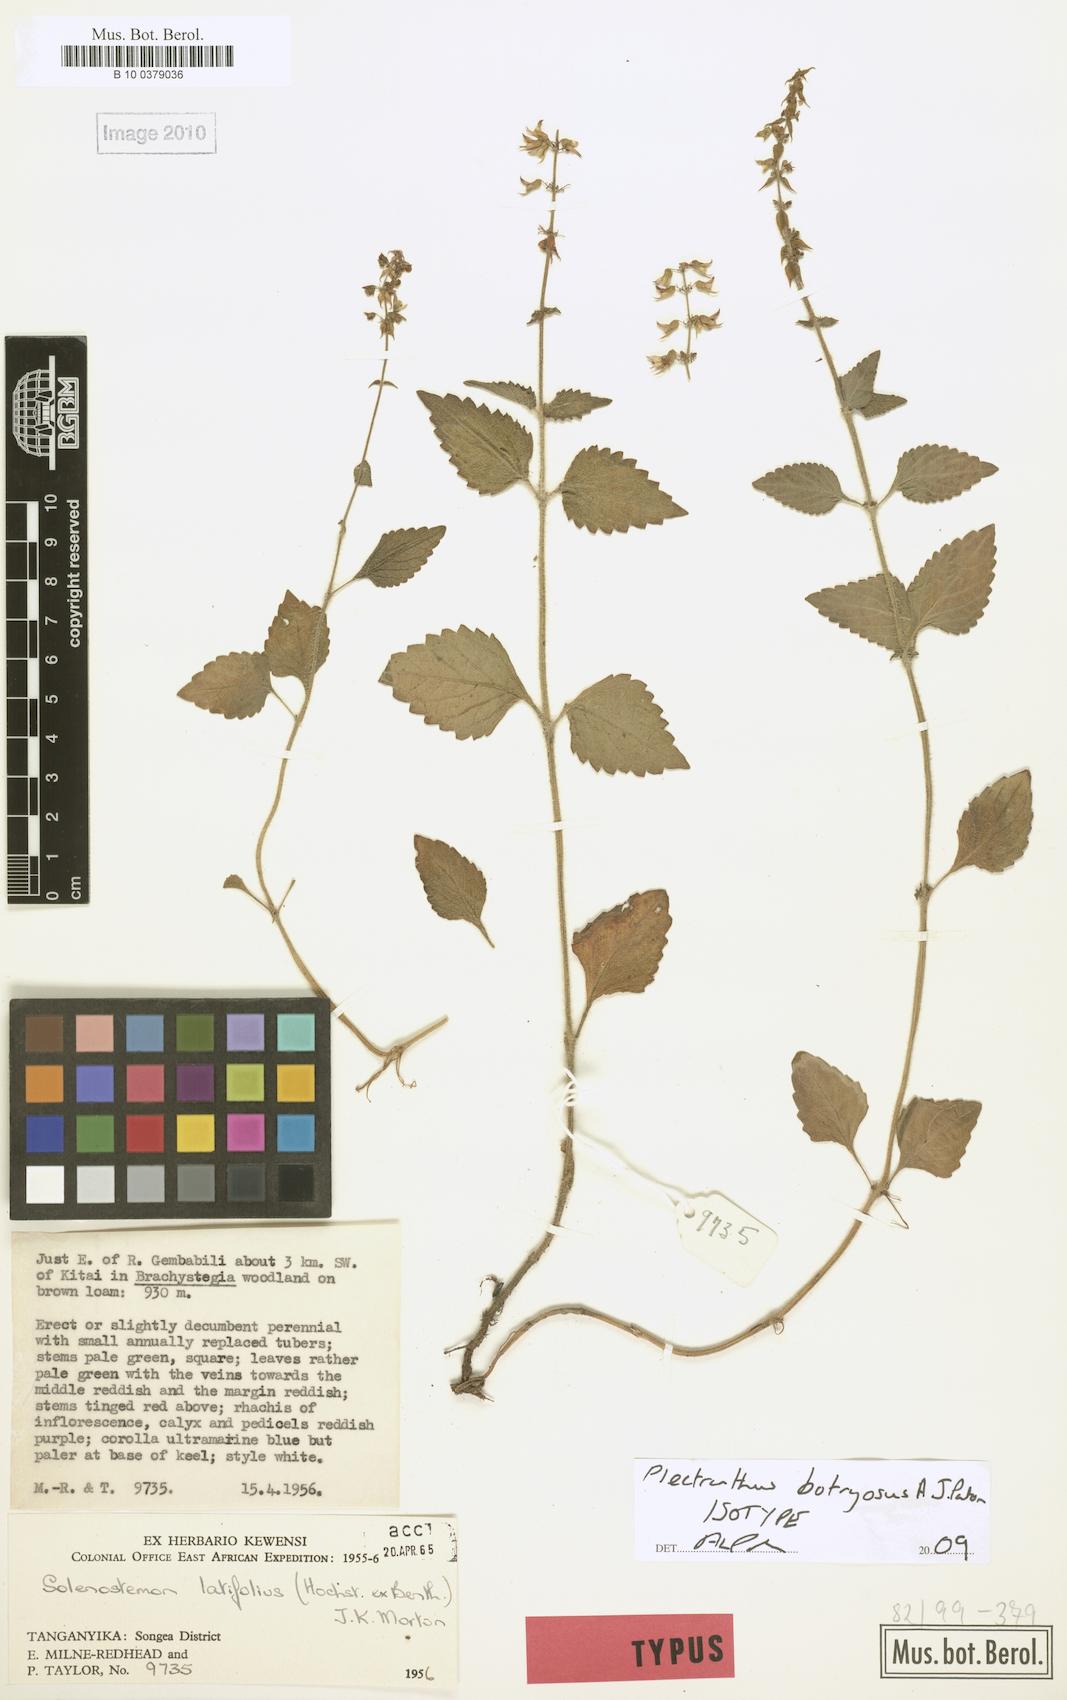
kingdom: Plantae
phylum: Tracheophyta
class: Magnoliopsida
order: Lamiales
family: Lamiaceae
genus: Coleus
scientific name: Coleus botryosus
